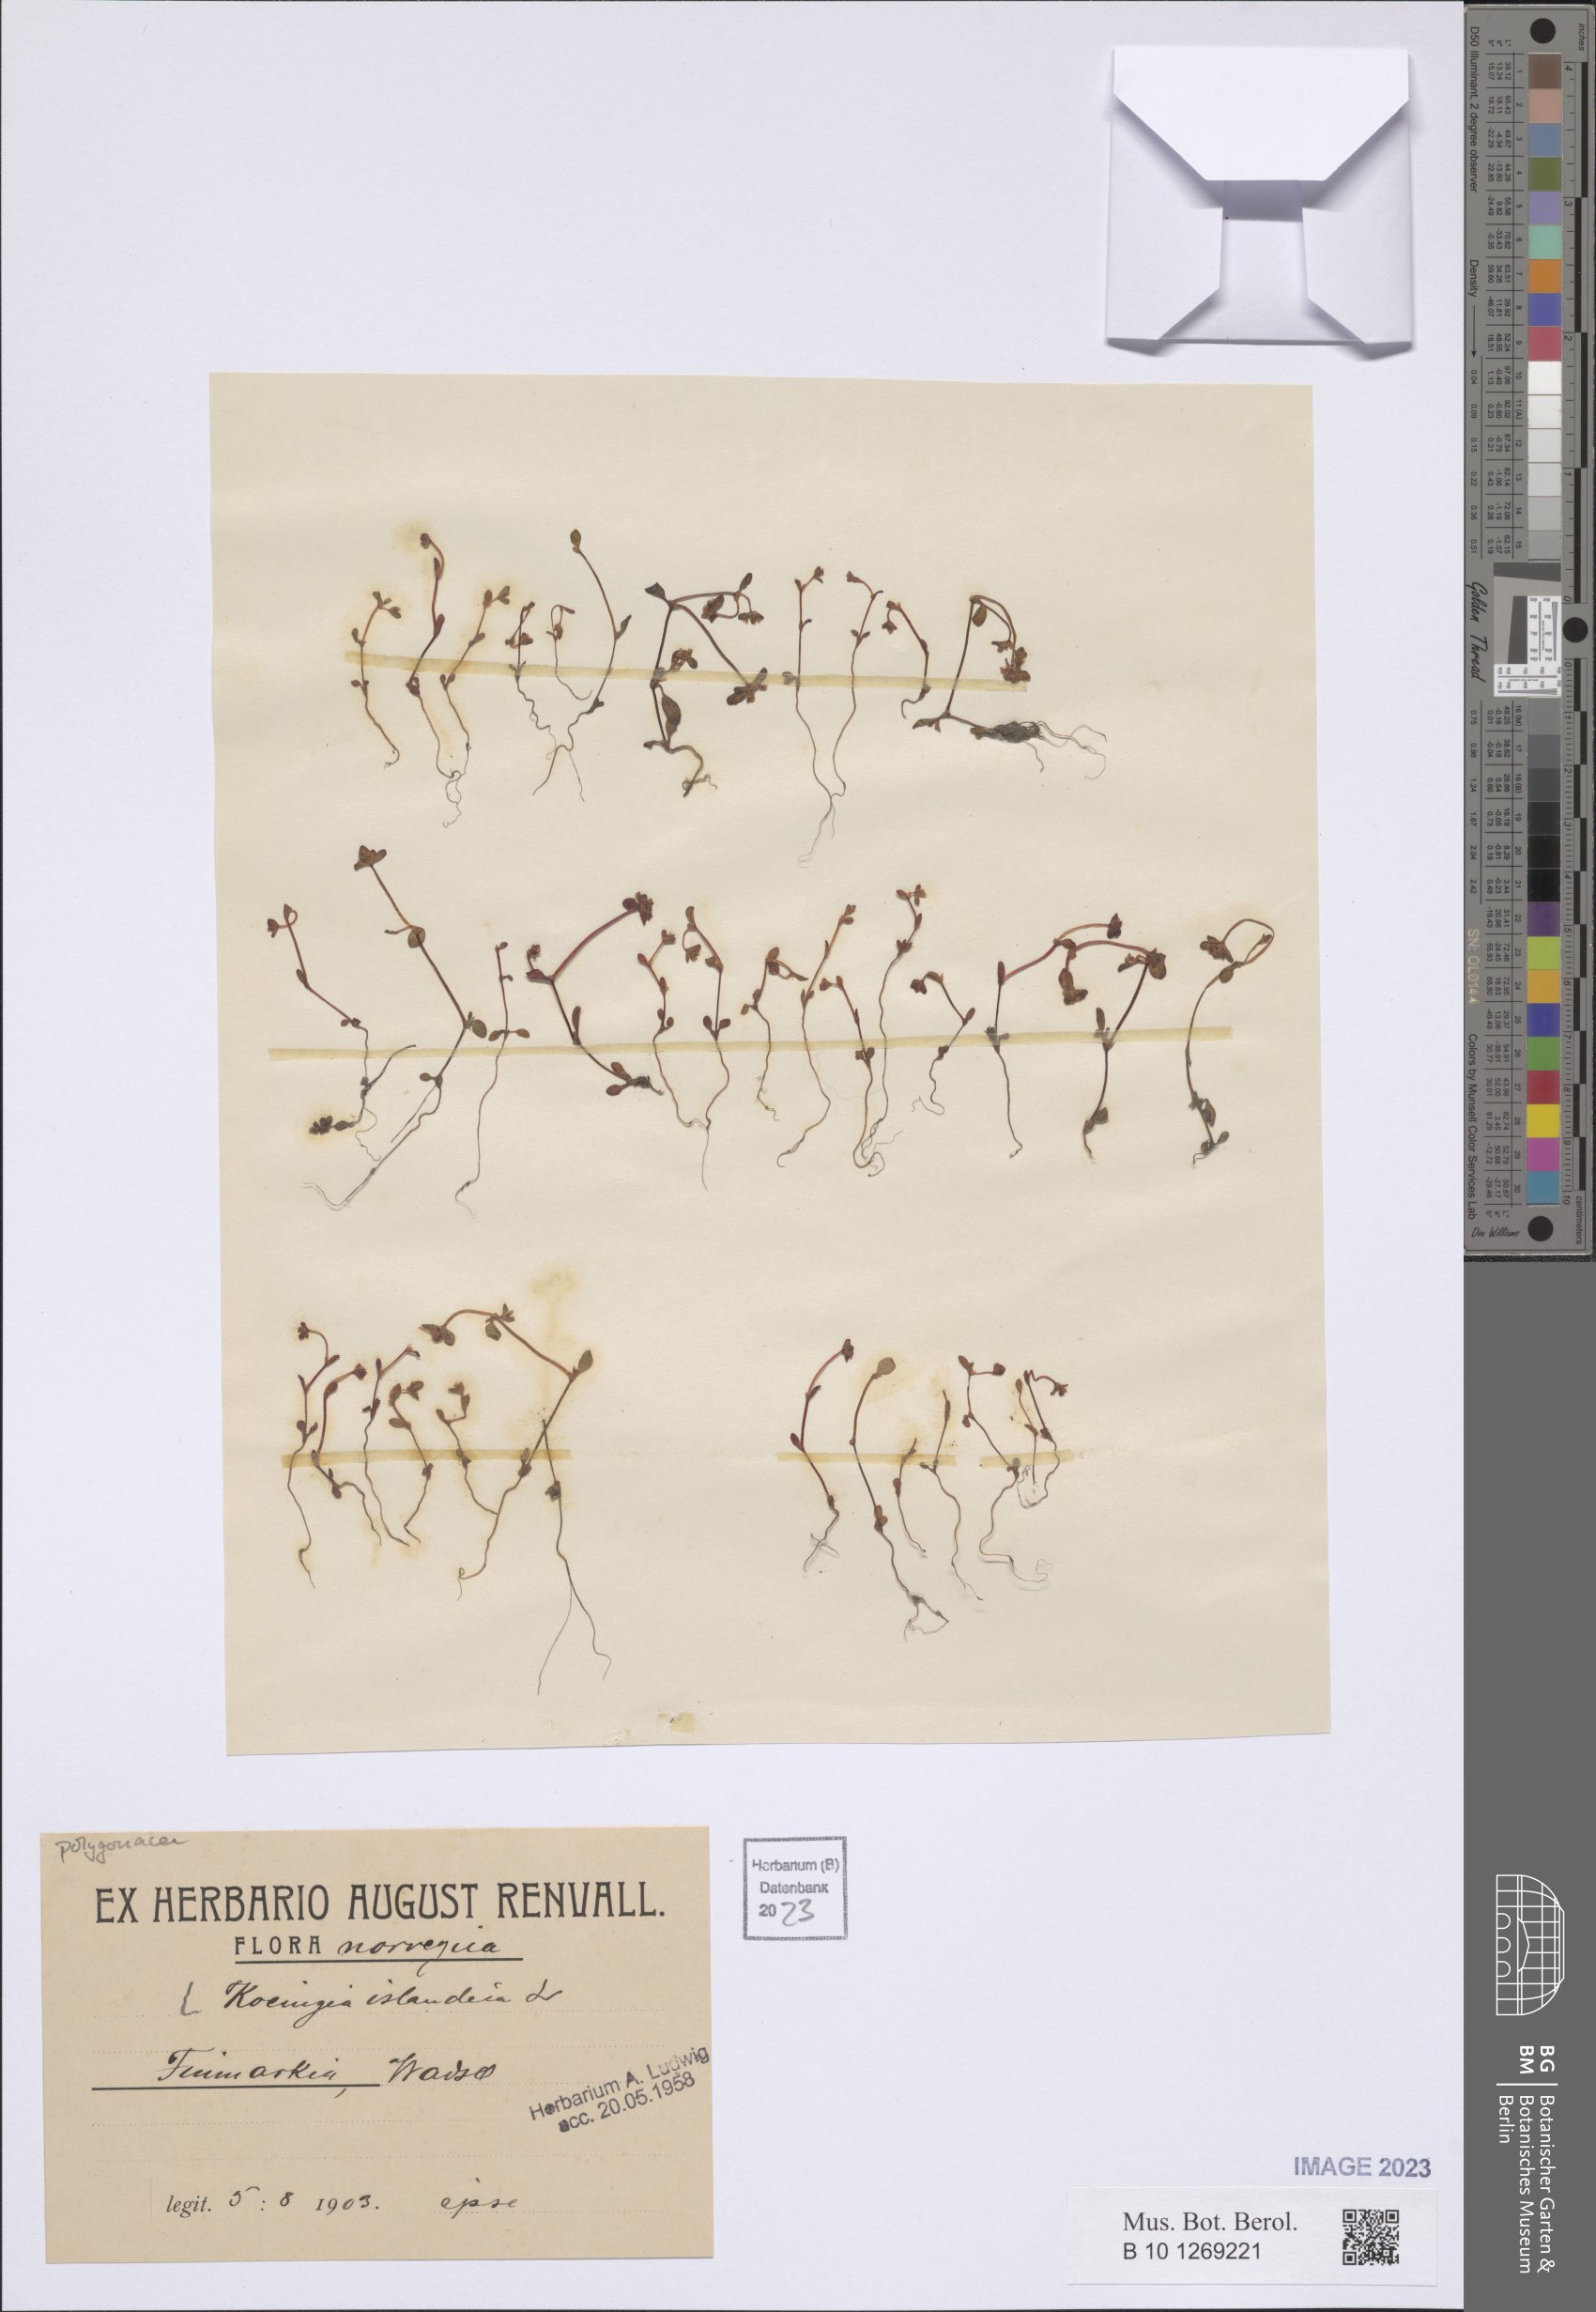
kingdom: Plantae
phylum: Tracheophyta
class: Magnoliopsida
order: Caryophyllales
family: Polygonaceae
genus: Koenigia
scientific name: Koenigia islandica
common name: Iceland-purslane
